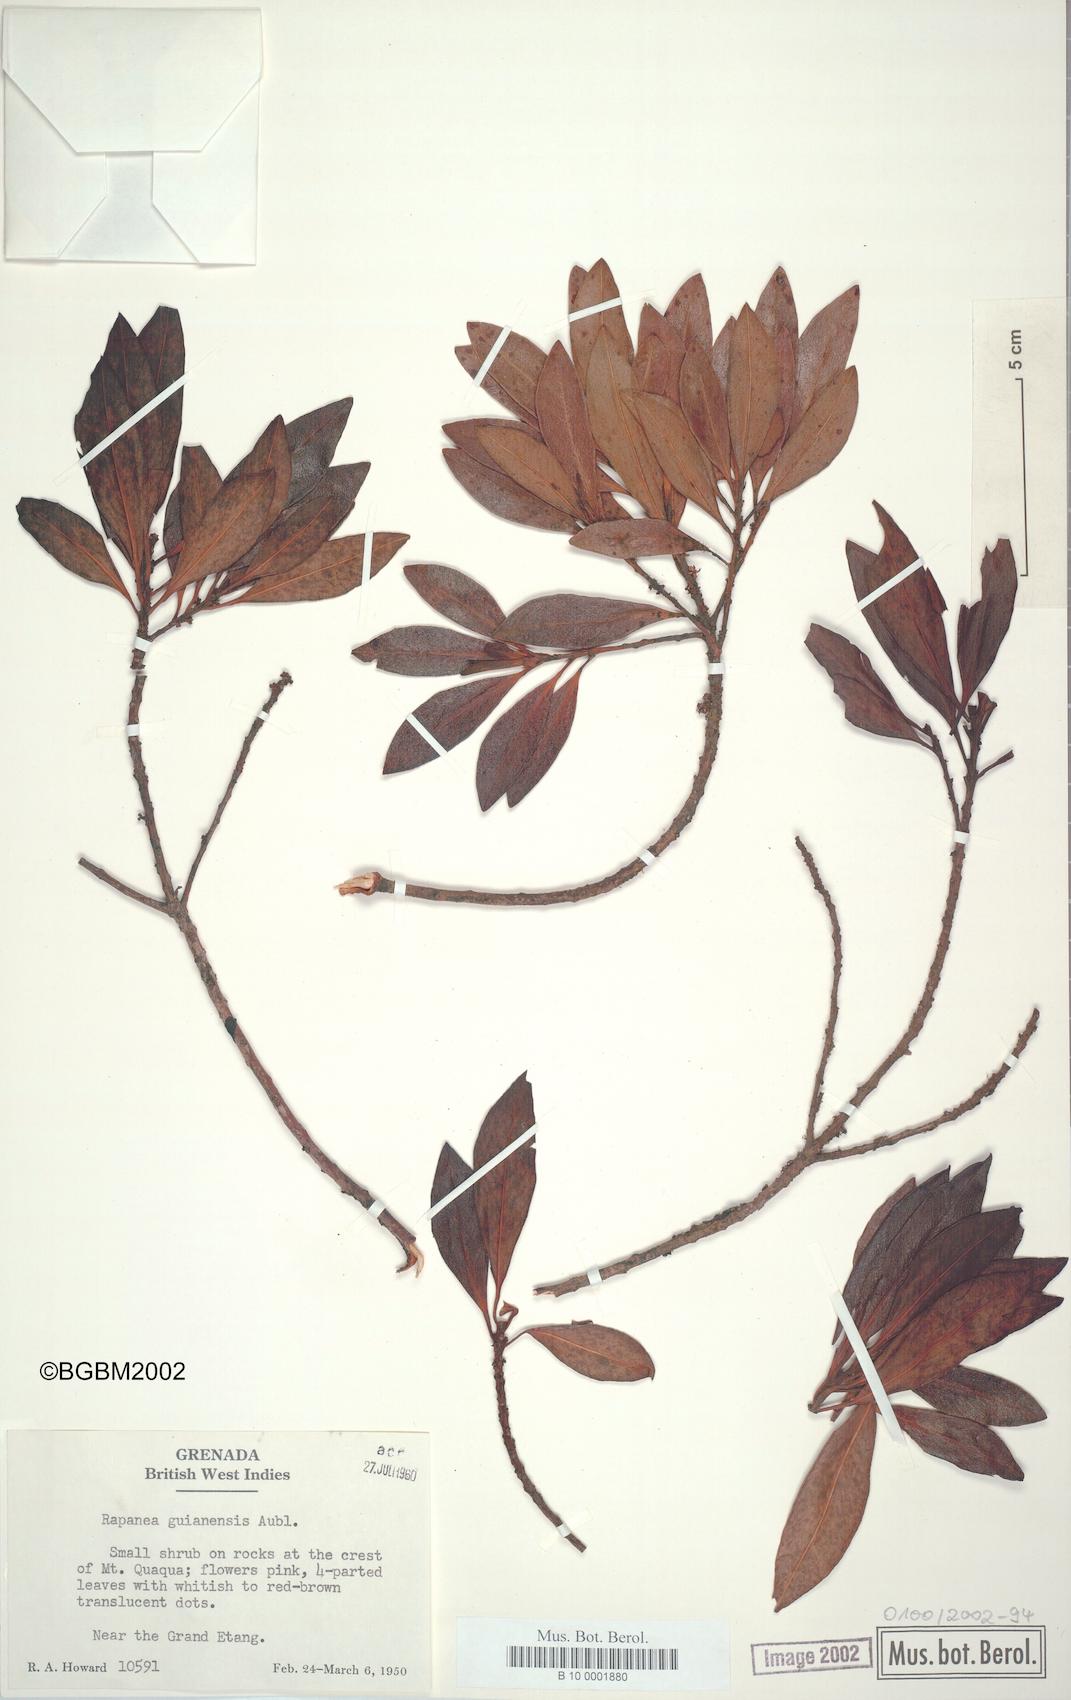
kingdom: Plantae
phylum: Tracheophyta
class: Magnoliopsida
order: Ericales
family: Primulaceae
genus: Myrsine
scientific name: Myrsine guianensis
